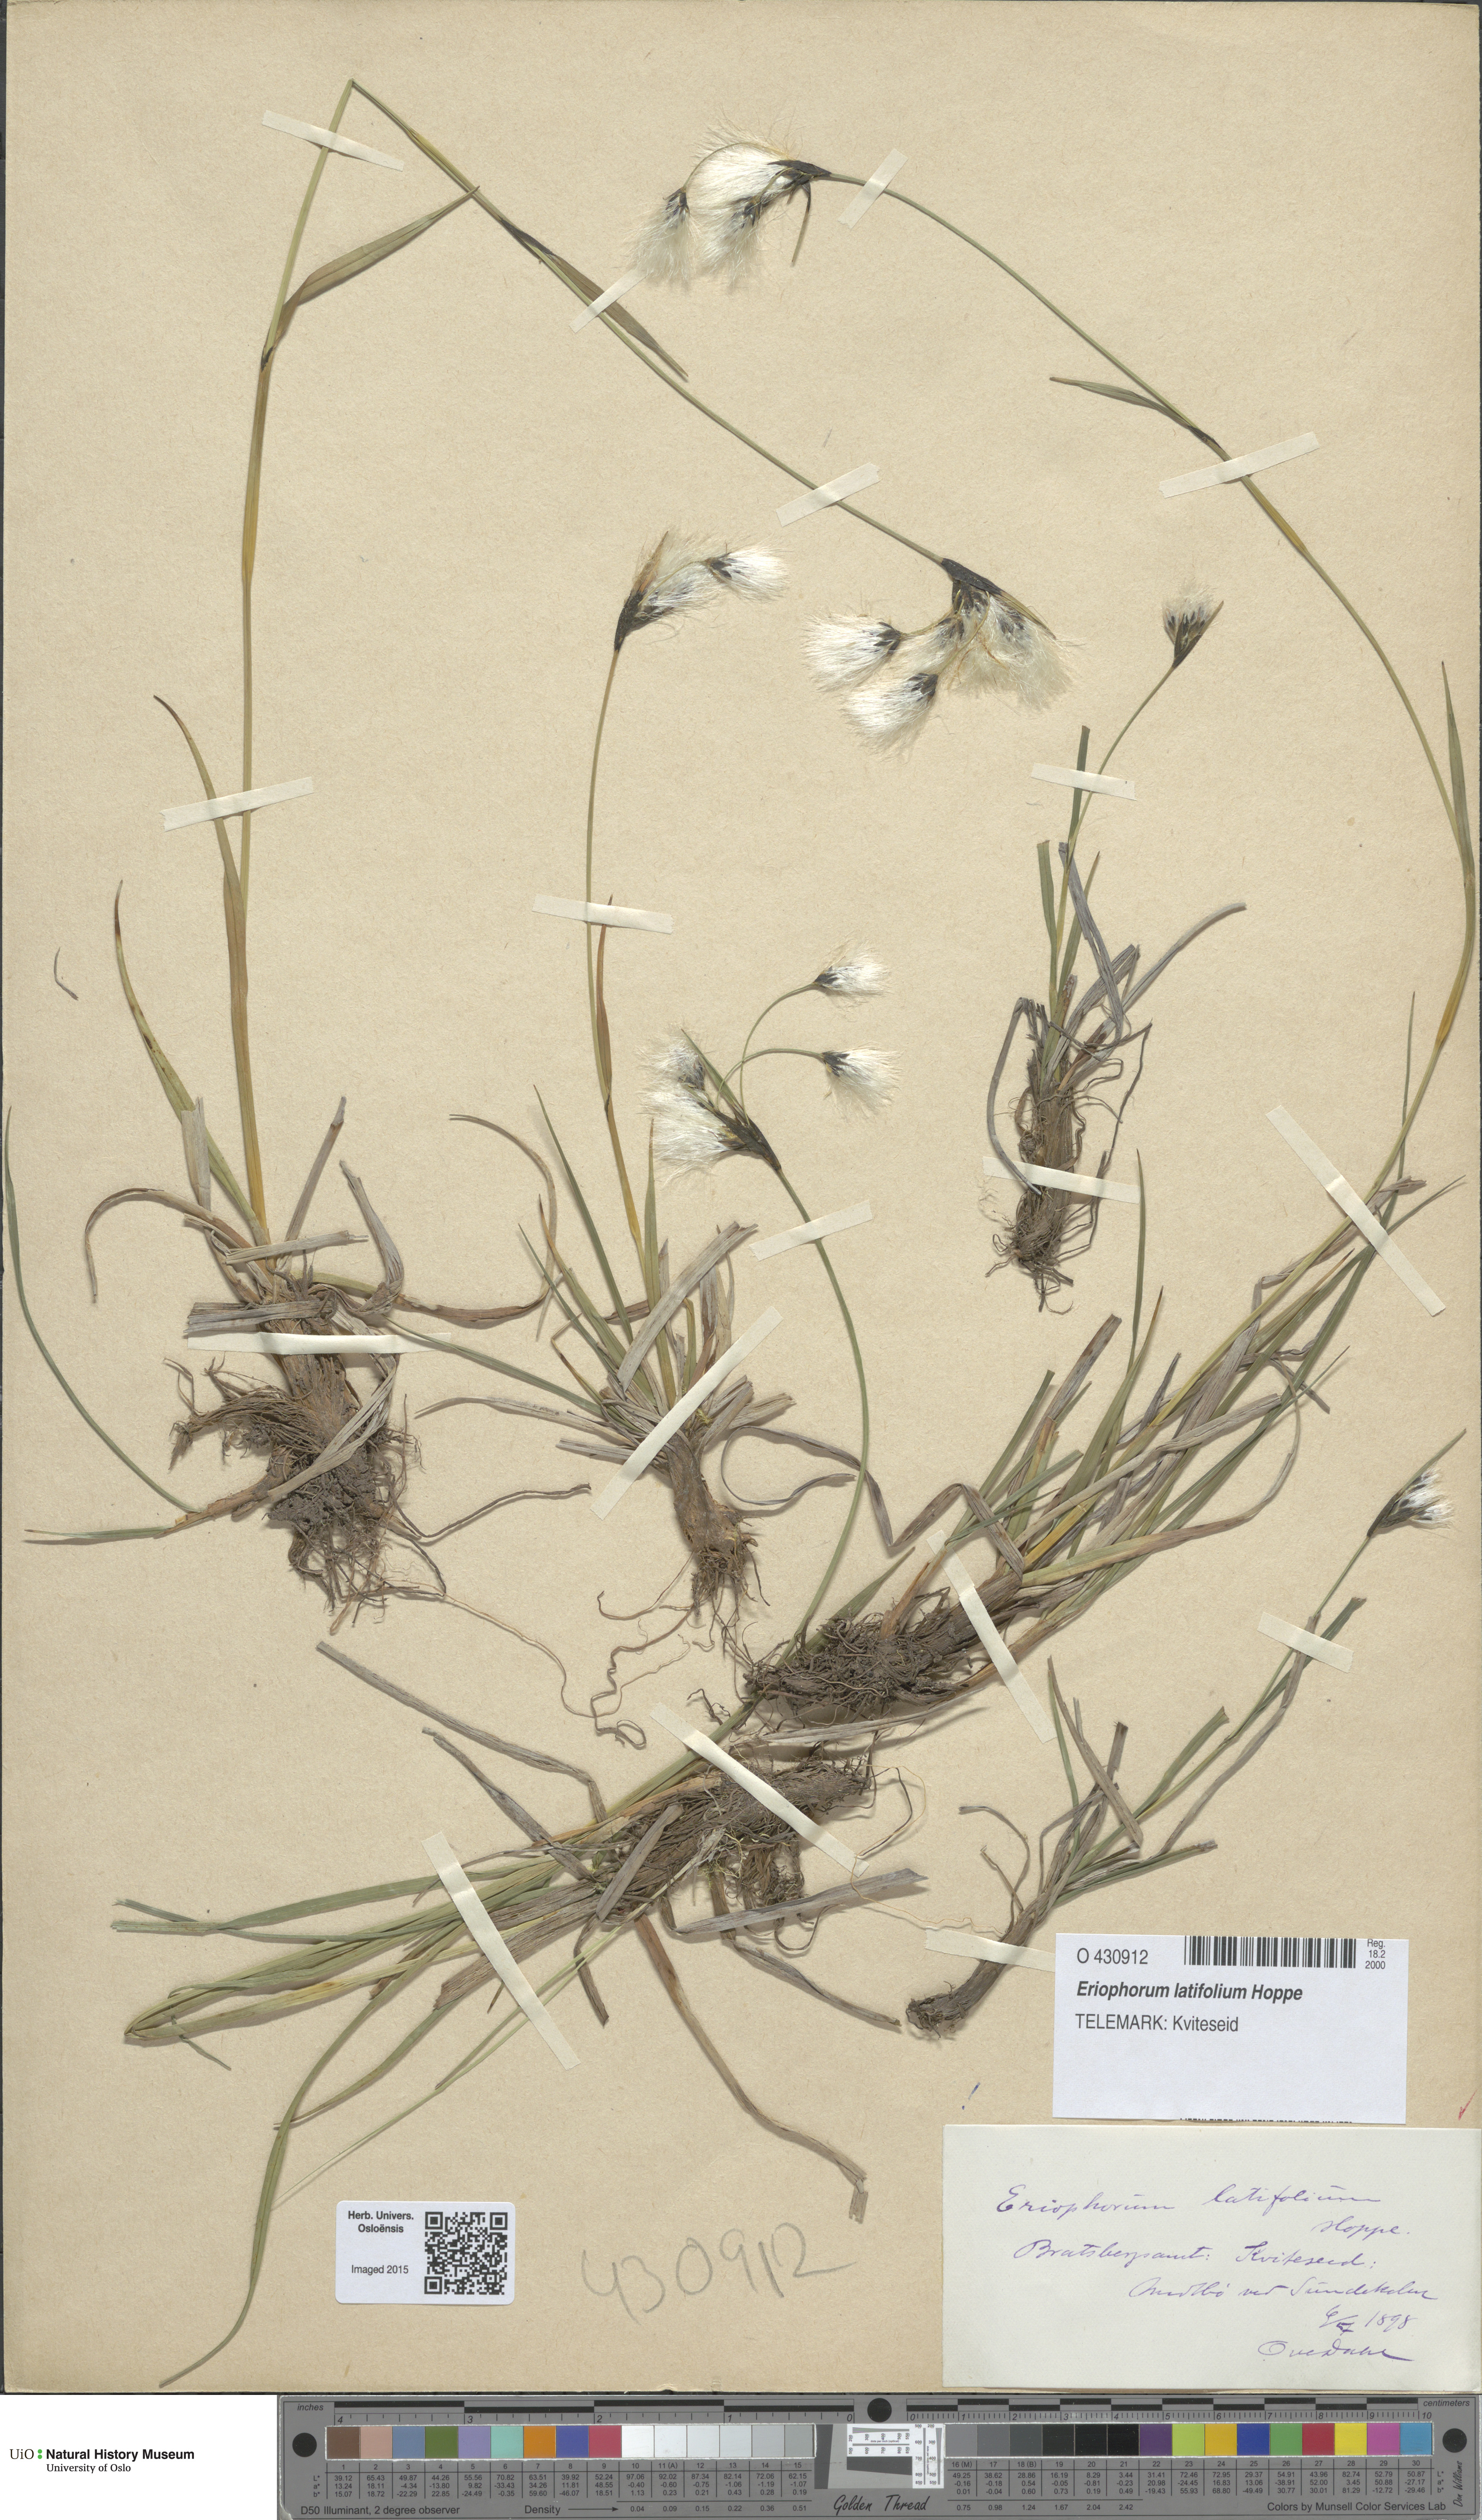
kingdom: Plantae
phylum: Tracheophyta
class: Liliopsida
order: Poales
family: Cyperaceae
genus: Eriophorum
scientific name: Eriophorum latifolium
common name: Broad-leaved cottongrass
